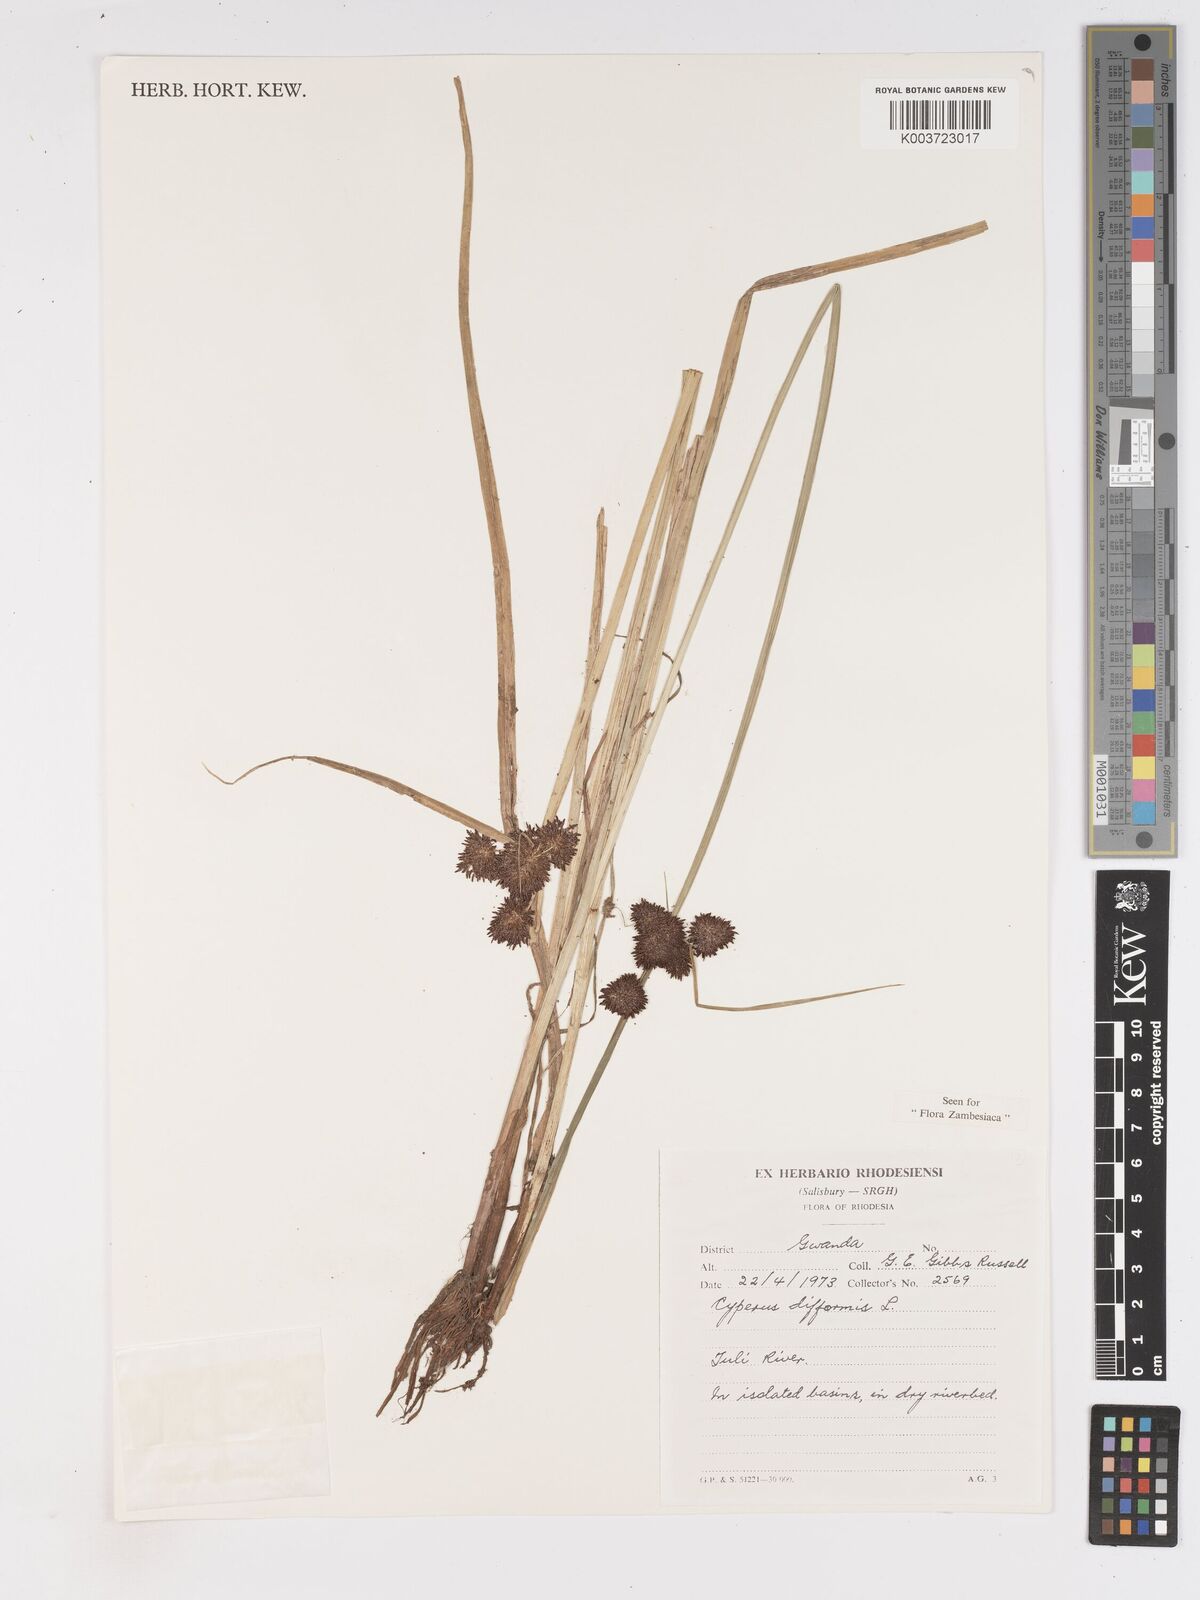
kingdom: Plantae
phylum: Tracheophyta
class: Liliopsida
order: Poales
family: Cyperaceae
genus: Cyperus
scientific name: Cyperus difformis
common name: Variable flatsedge
